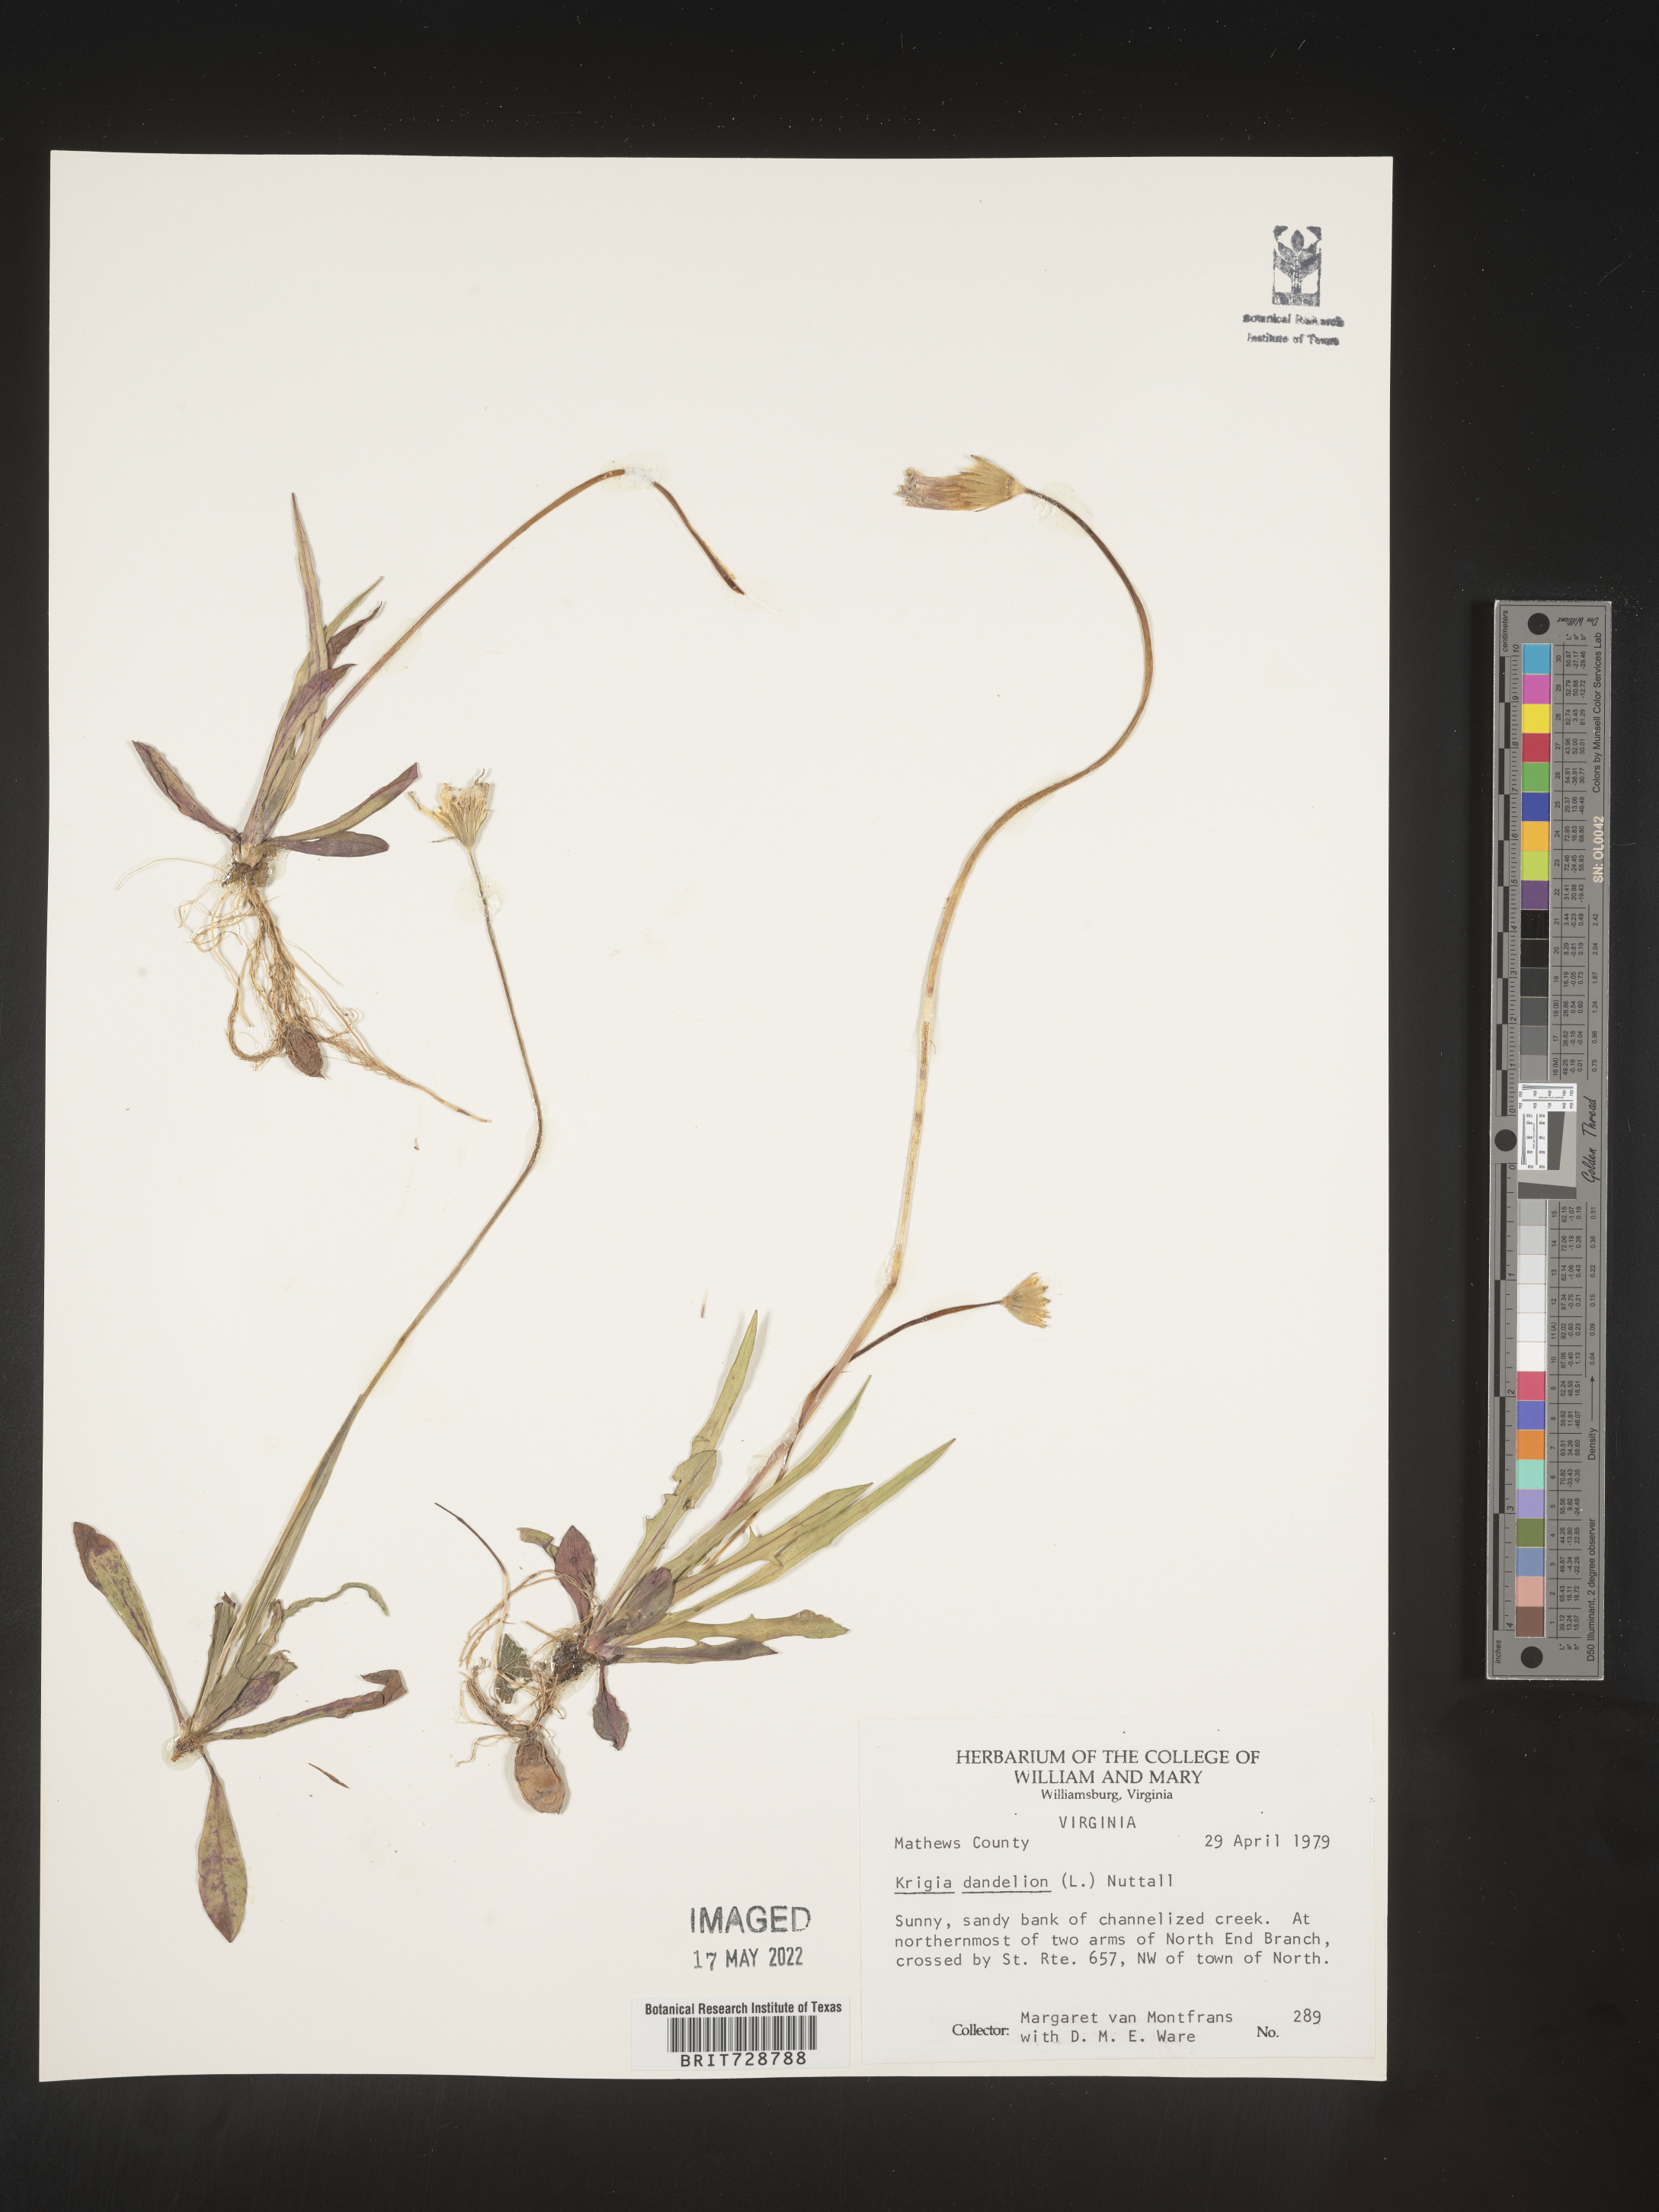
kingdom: Plantae
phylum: Tracheophyta
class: Magnoliopsida
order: Asterales
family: Asteraceae
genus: Krigia
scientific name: Krigia dandelion
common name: Colonial dwarf-dandelion
